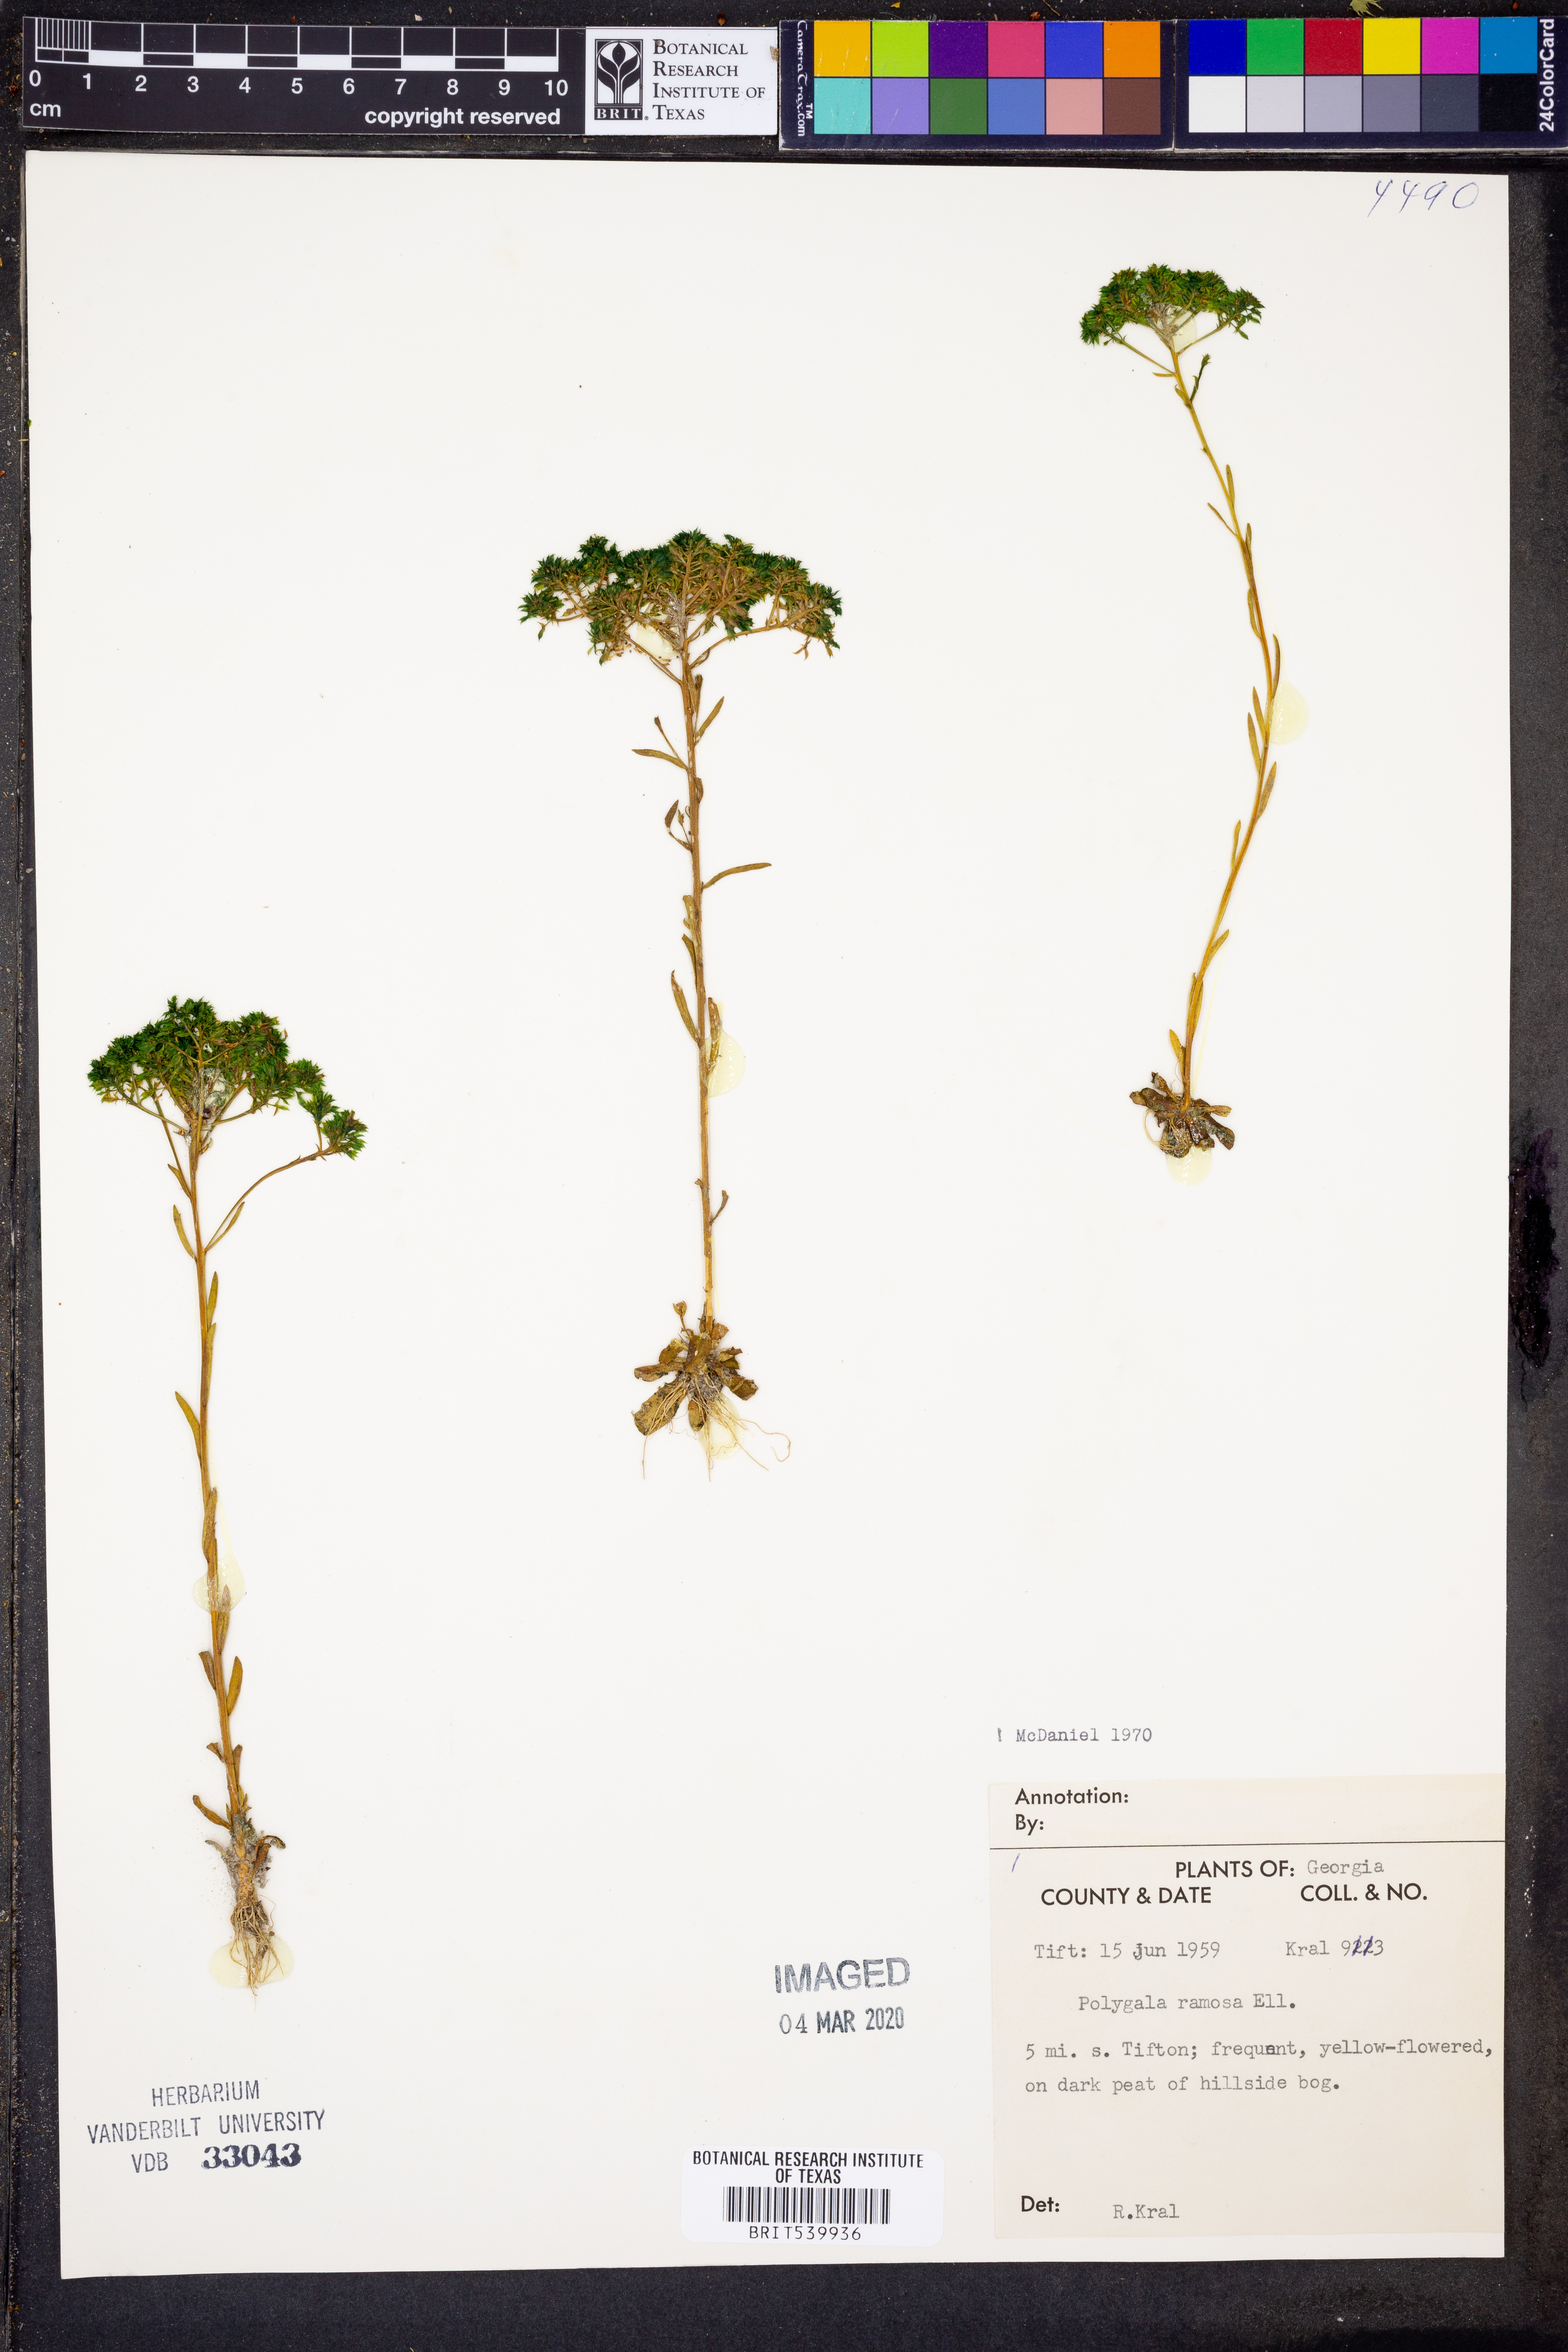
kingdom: Plantae
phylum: Tracheophyta
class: Magnoliopsida
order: Fabales
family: Polygalaceae
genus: Polygala
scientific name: Polygala ramosa
